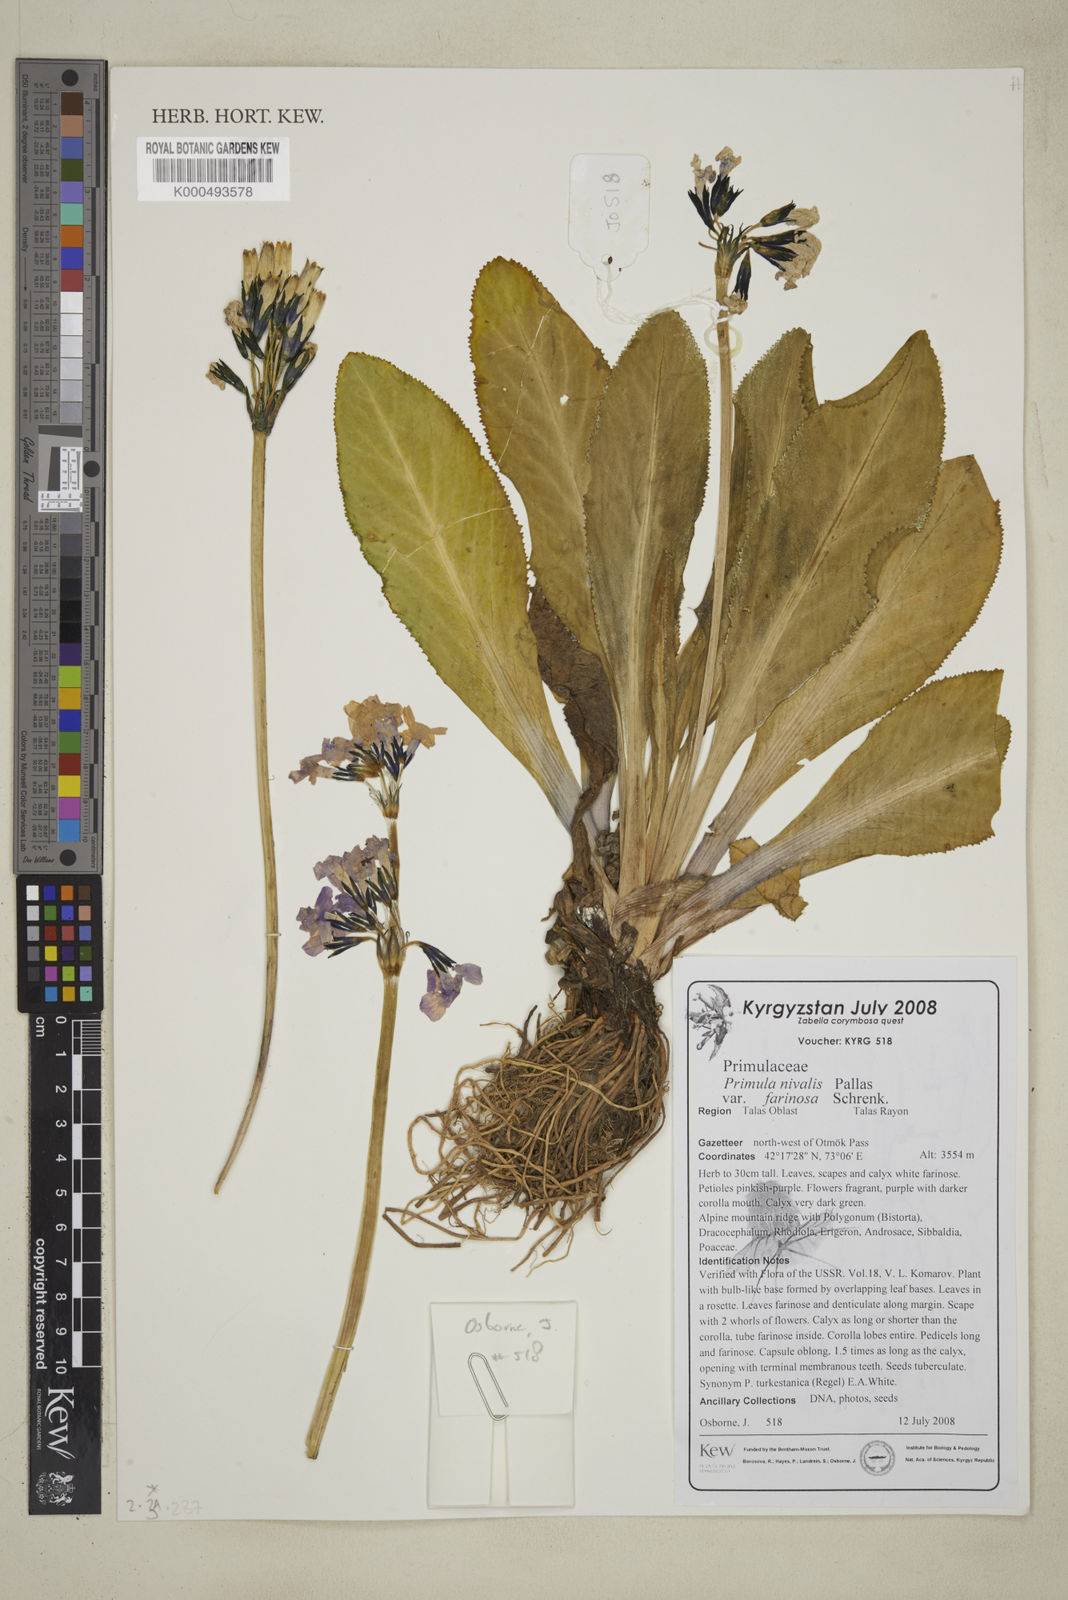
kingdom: Plantae
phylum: Tracheophyta
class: Magnoliopsida
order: Ericales
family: Primulaceae
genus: Primula
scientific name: Primula
